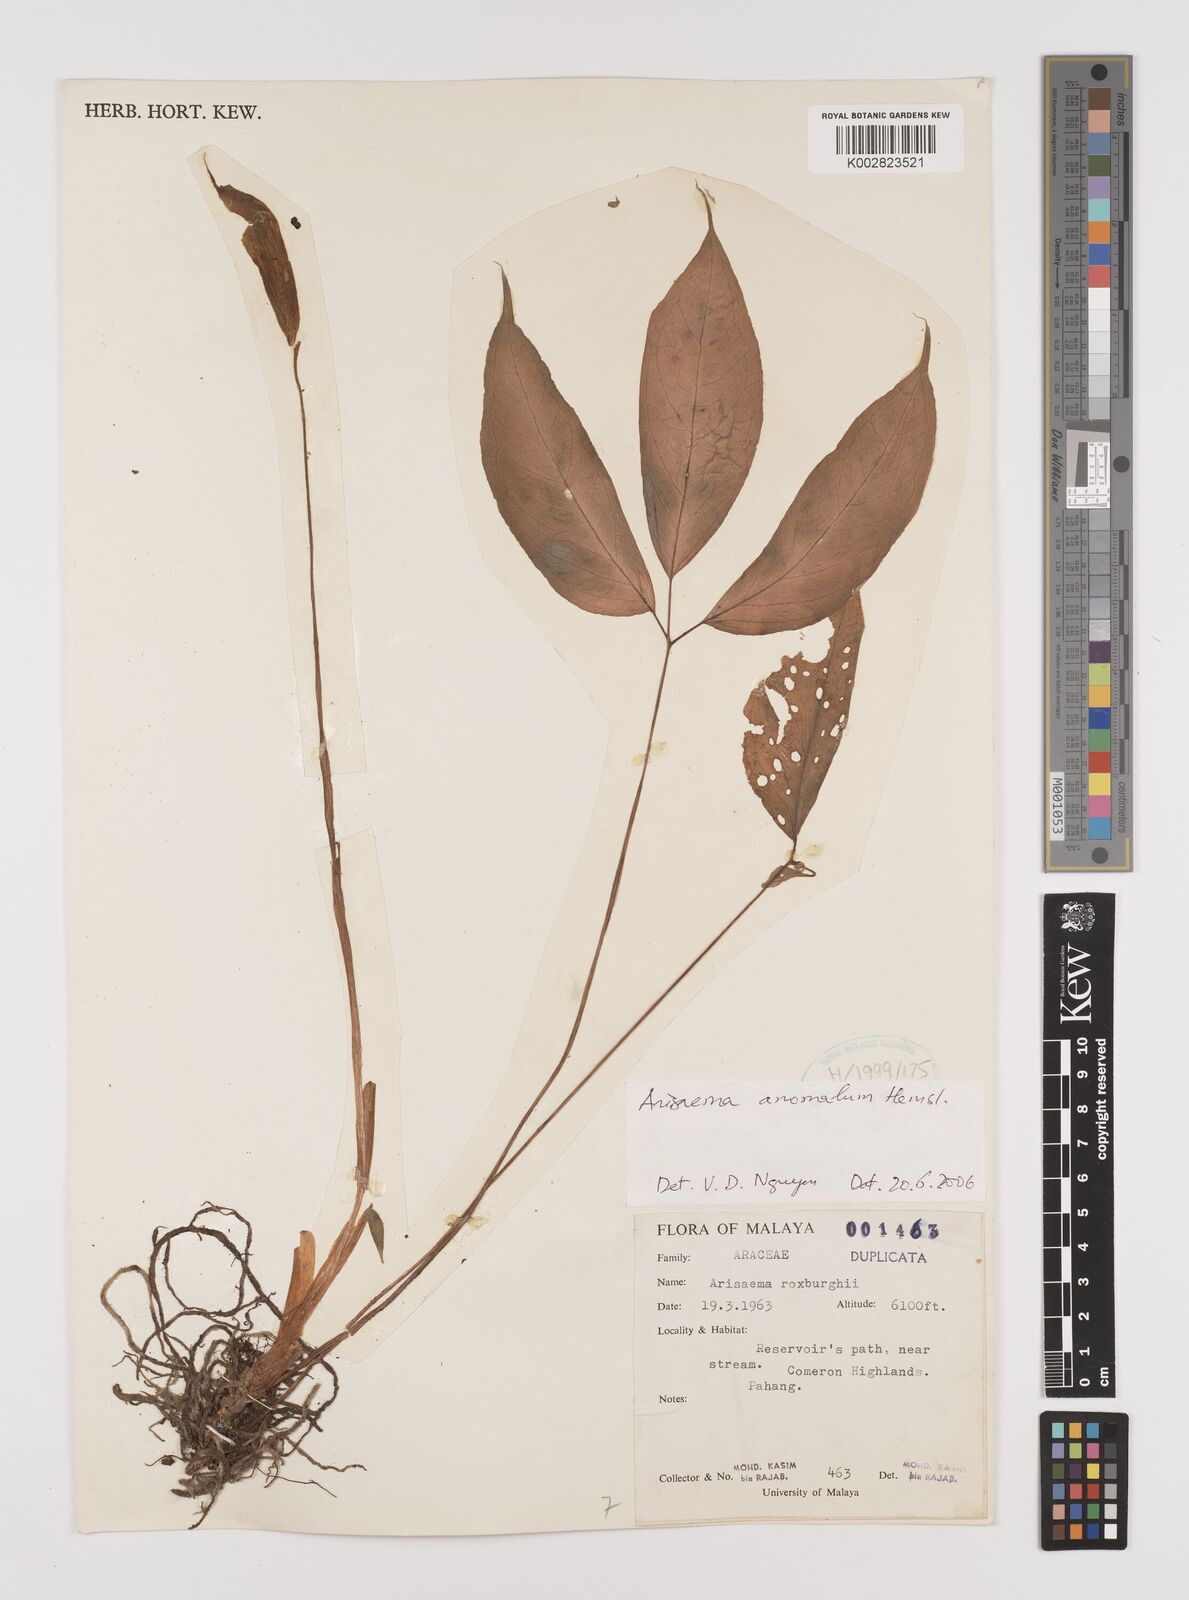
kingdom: Plantae
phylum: Tracheophyta
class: Liliopsida
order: Alismatales
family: Araceae
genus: Arisaema
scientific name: Arisaema anomalum
